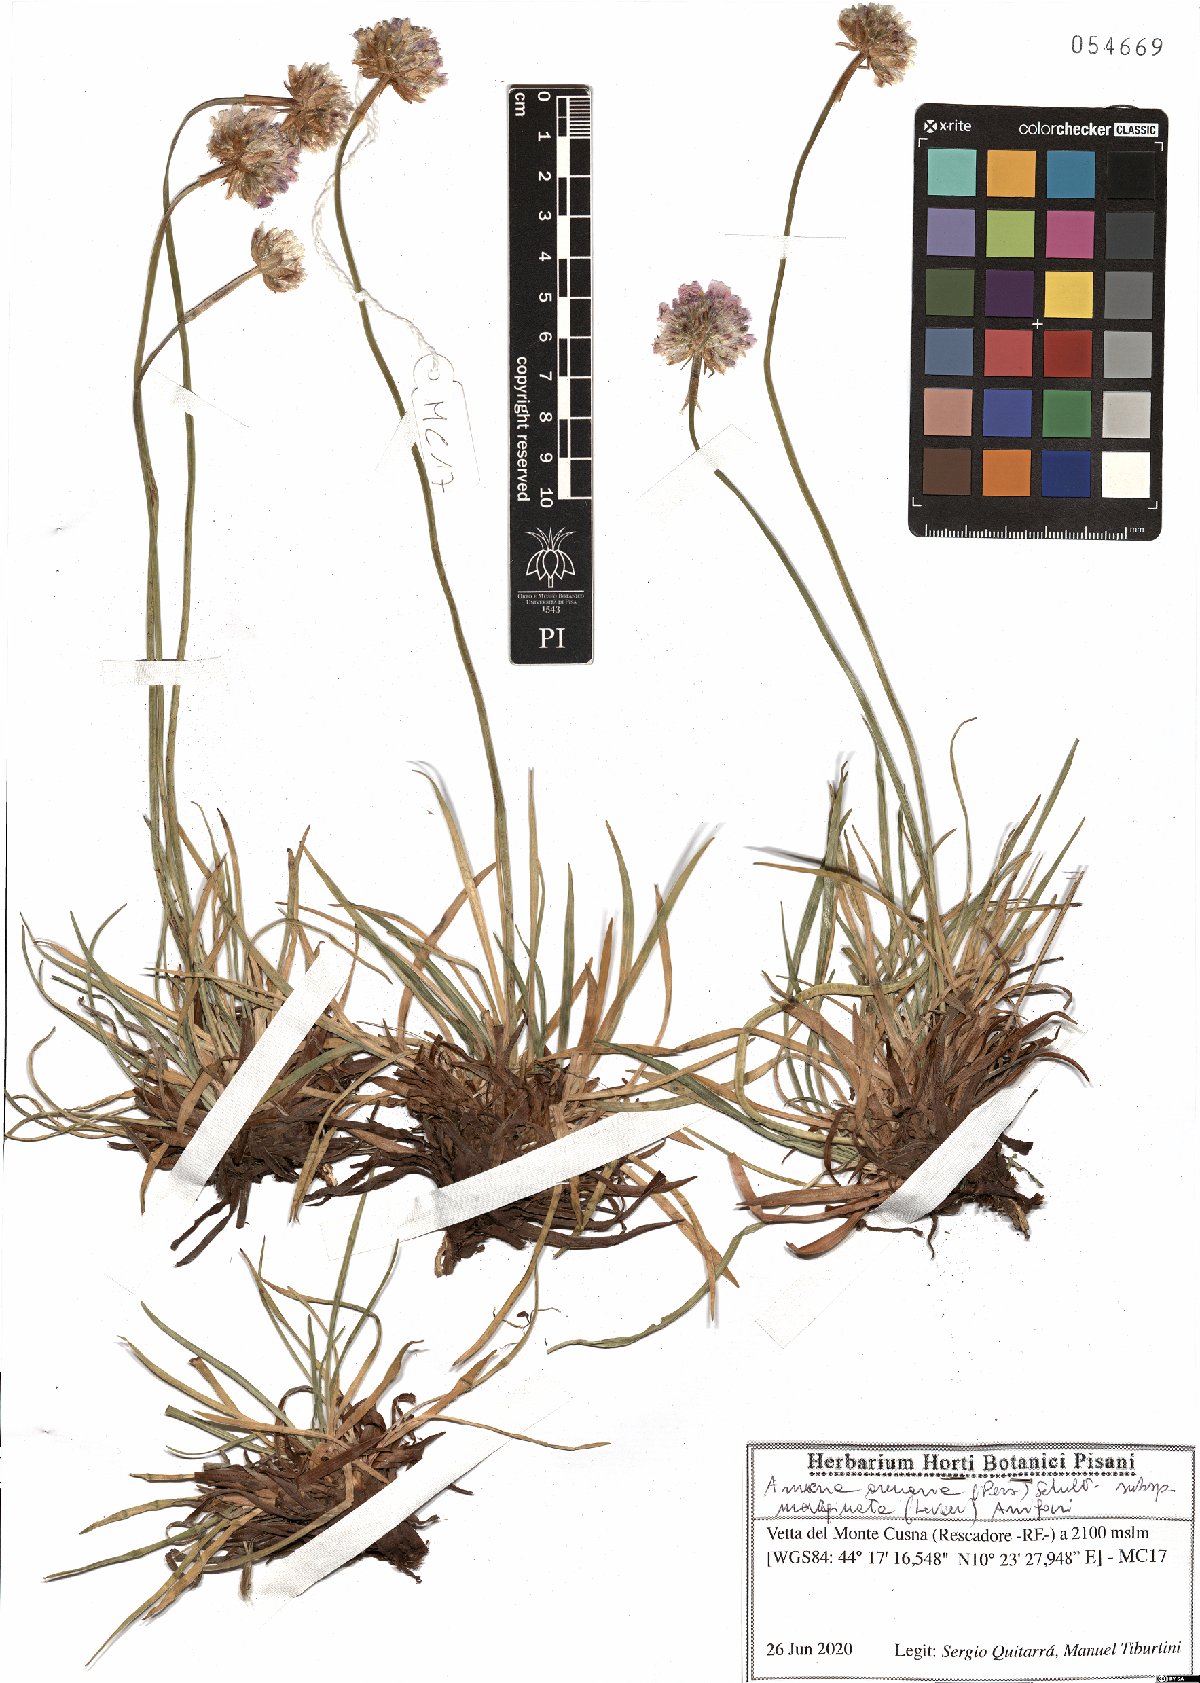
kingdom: Plantae
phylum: Tracheophyta
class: Magnoliopsida
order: Caryophyllales
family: Plumbaginaceae
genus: Armeria
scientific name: Armeria arenaria
